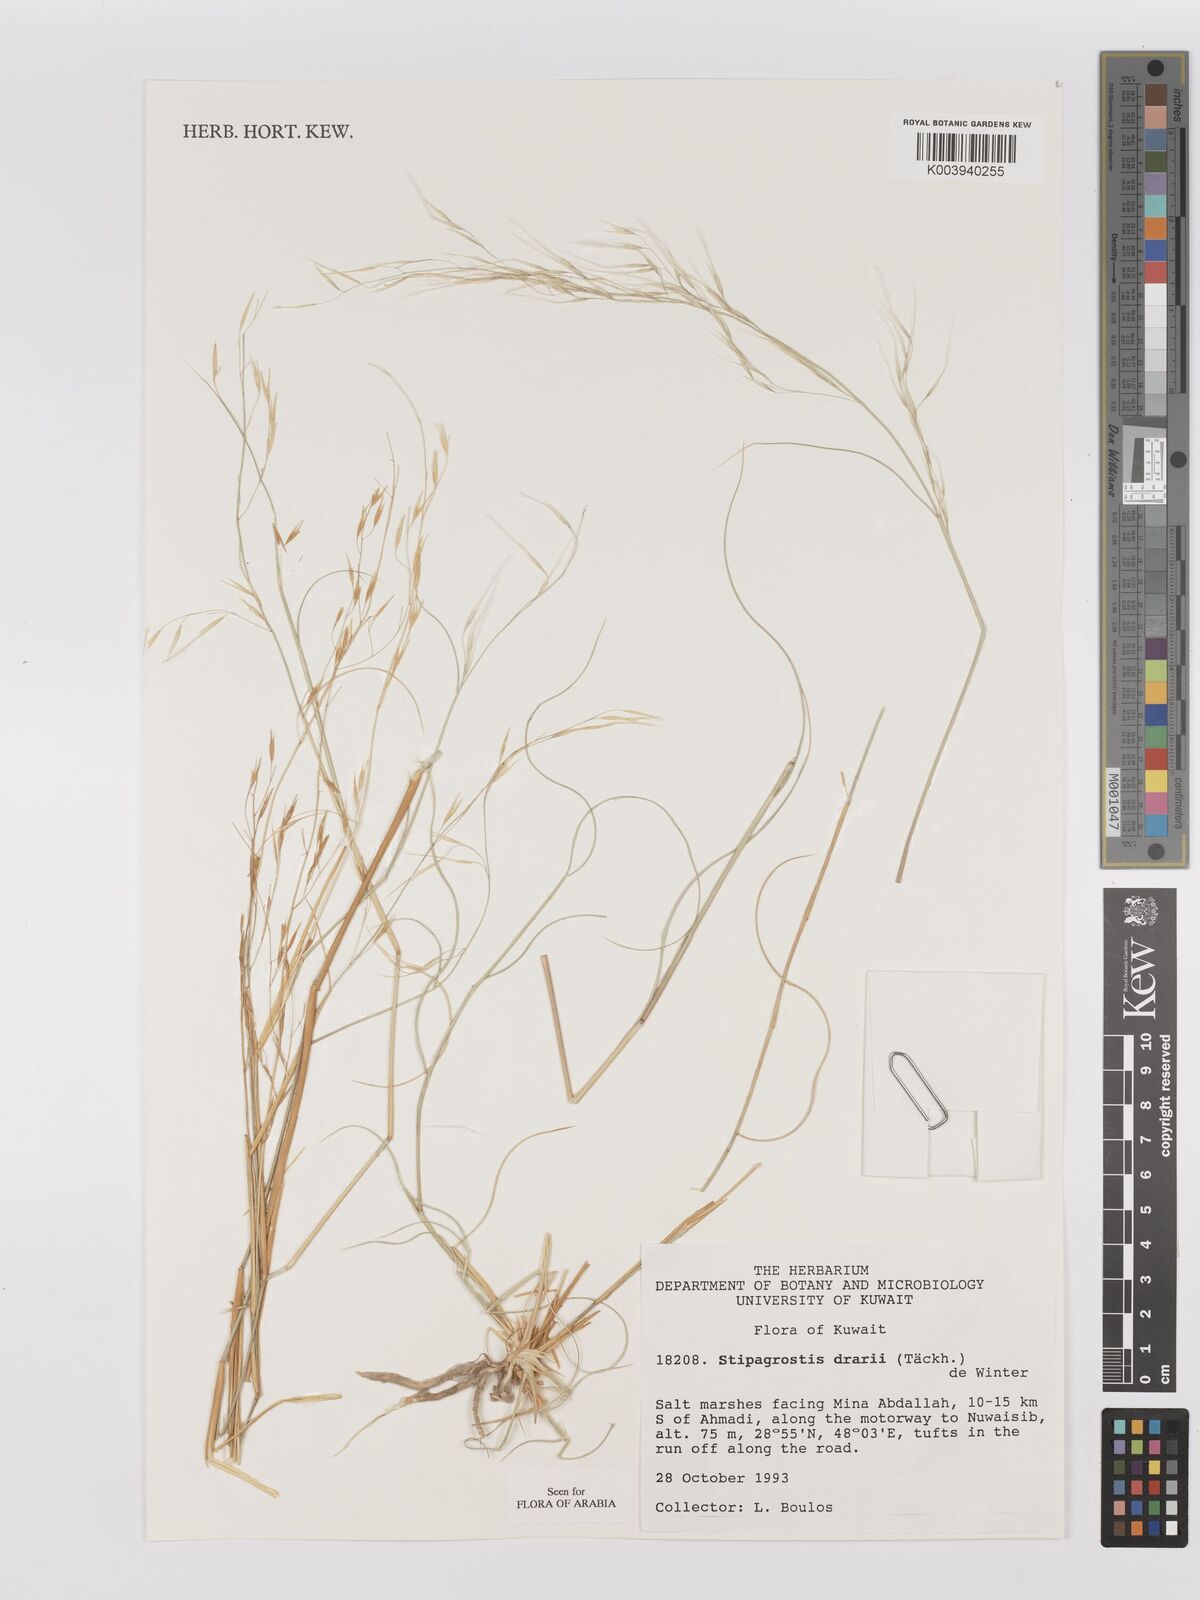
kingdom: Plantae
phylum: Tracheophyta
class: Liliopsida
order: Poales
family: Poaceae
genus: Stipagrostis
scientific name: Stipagrostis drarii
